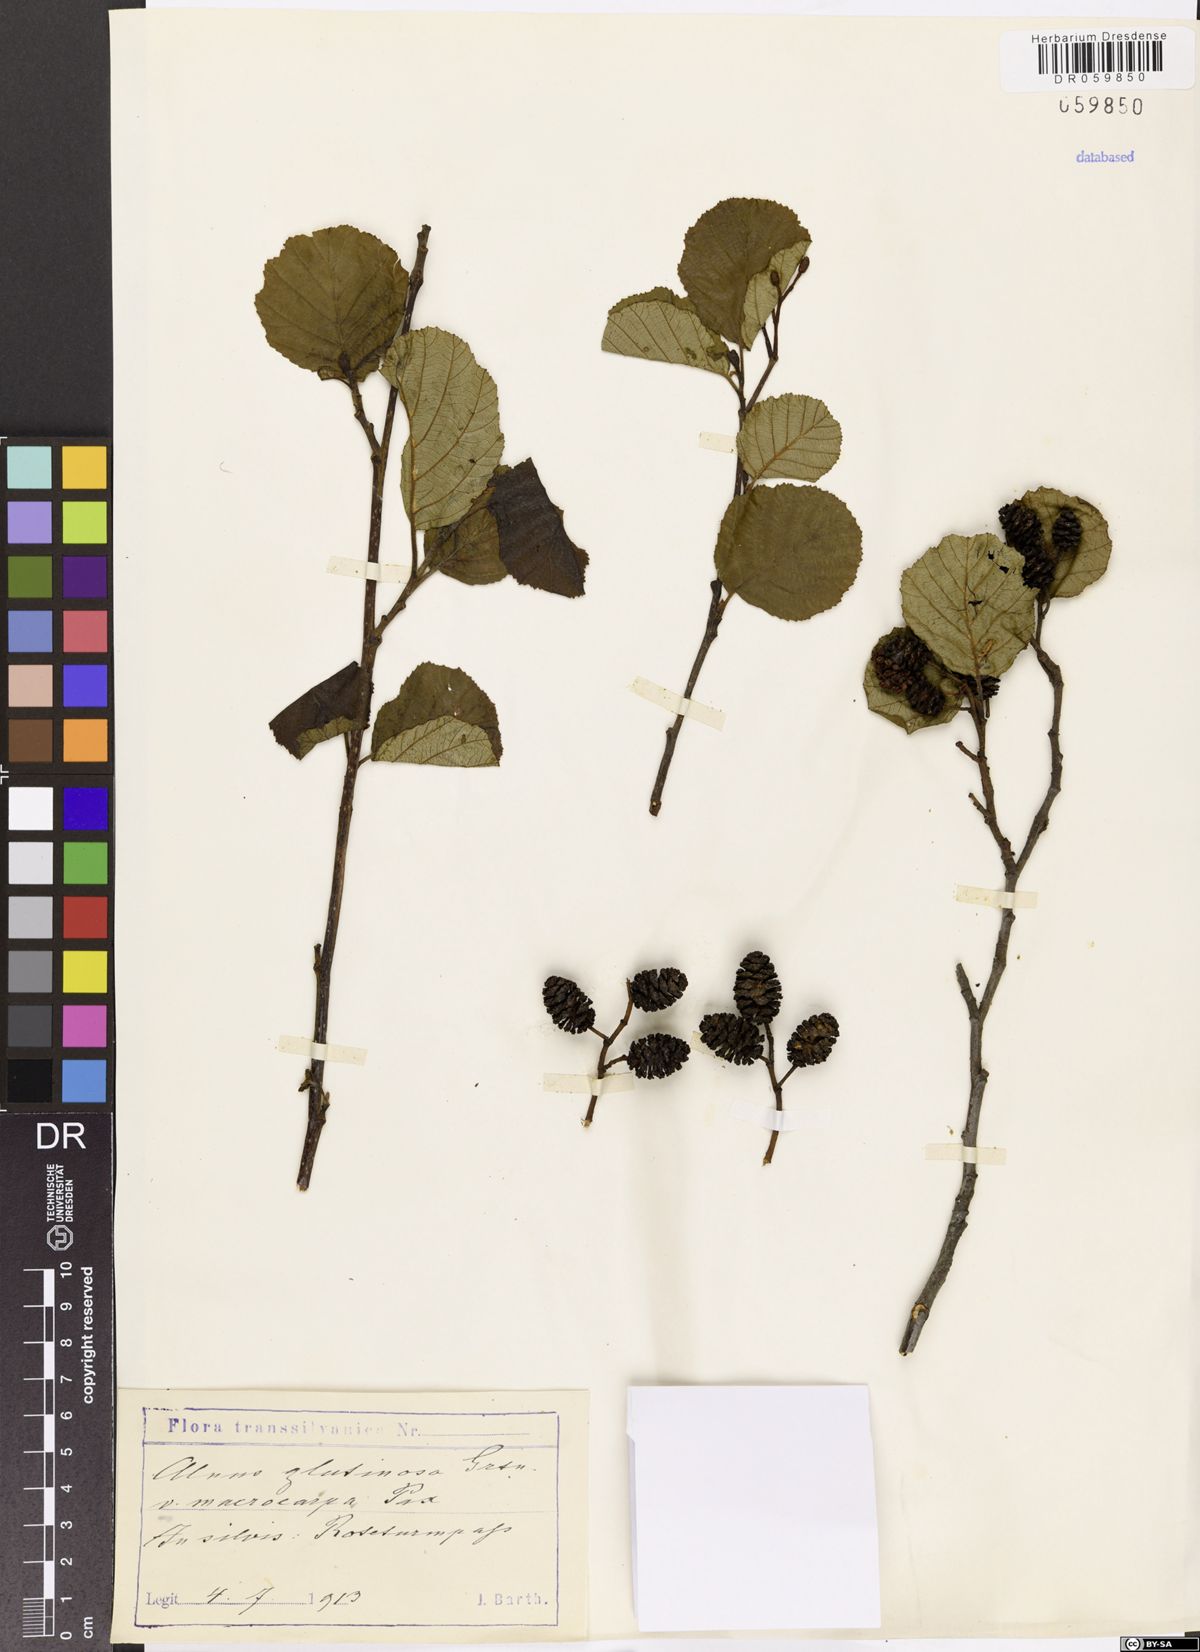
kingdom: Plantae
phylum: Tracheophyta
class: Magnoliopsida
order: Fagales
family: Betulaceae
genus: Alnus
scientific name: Alnus glutinosa
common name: Black alder
